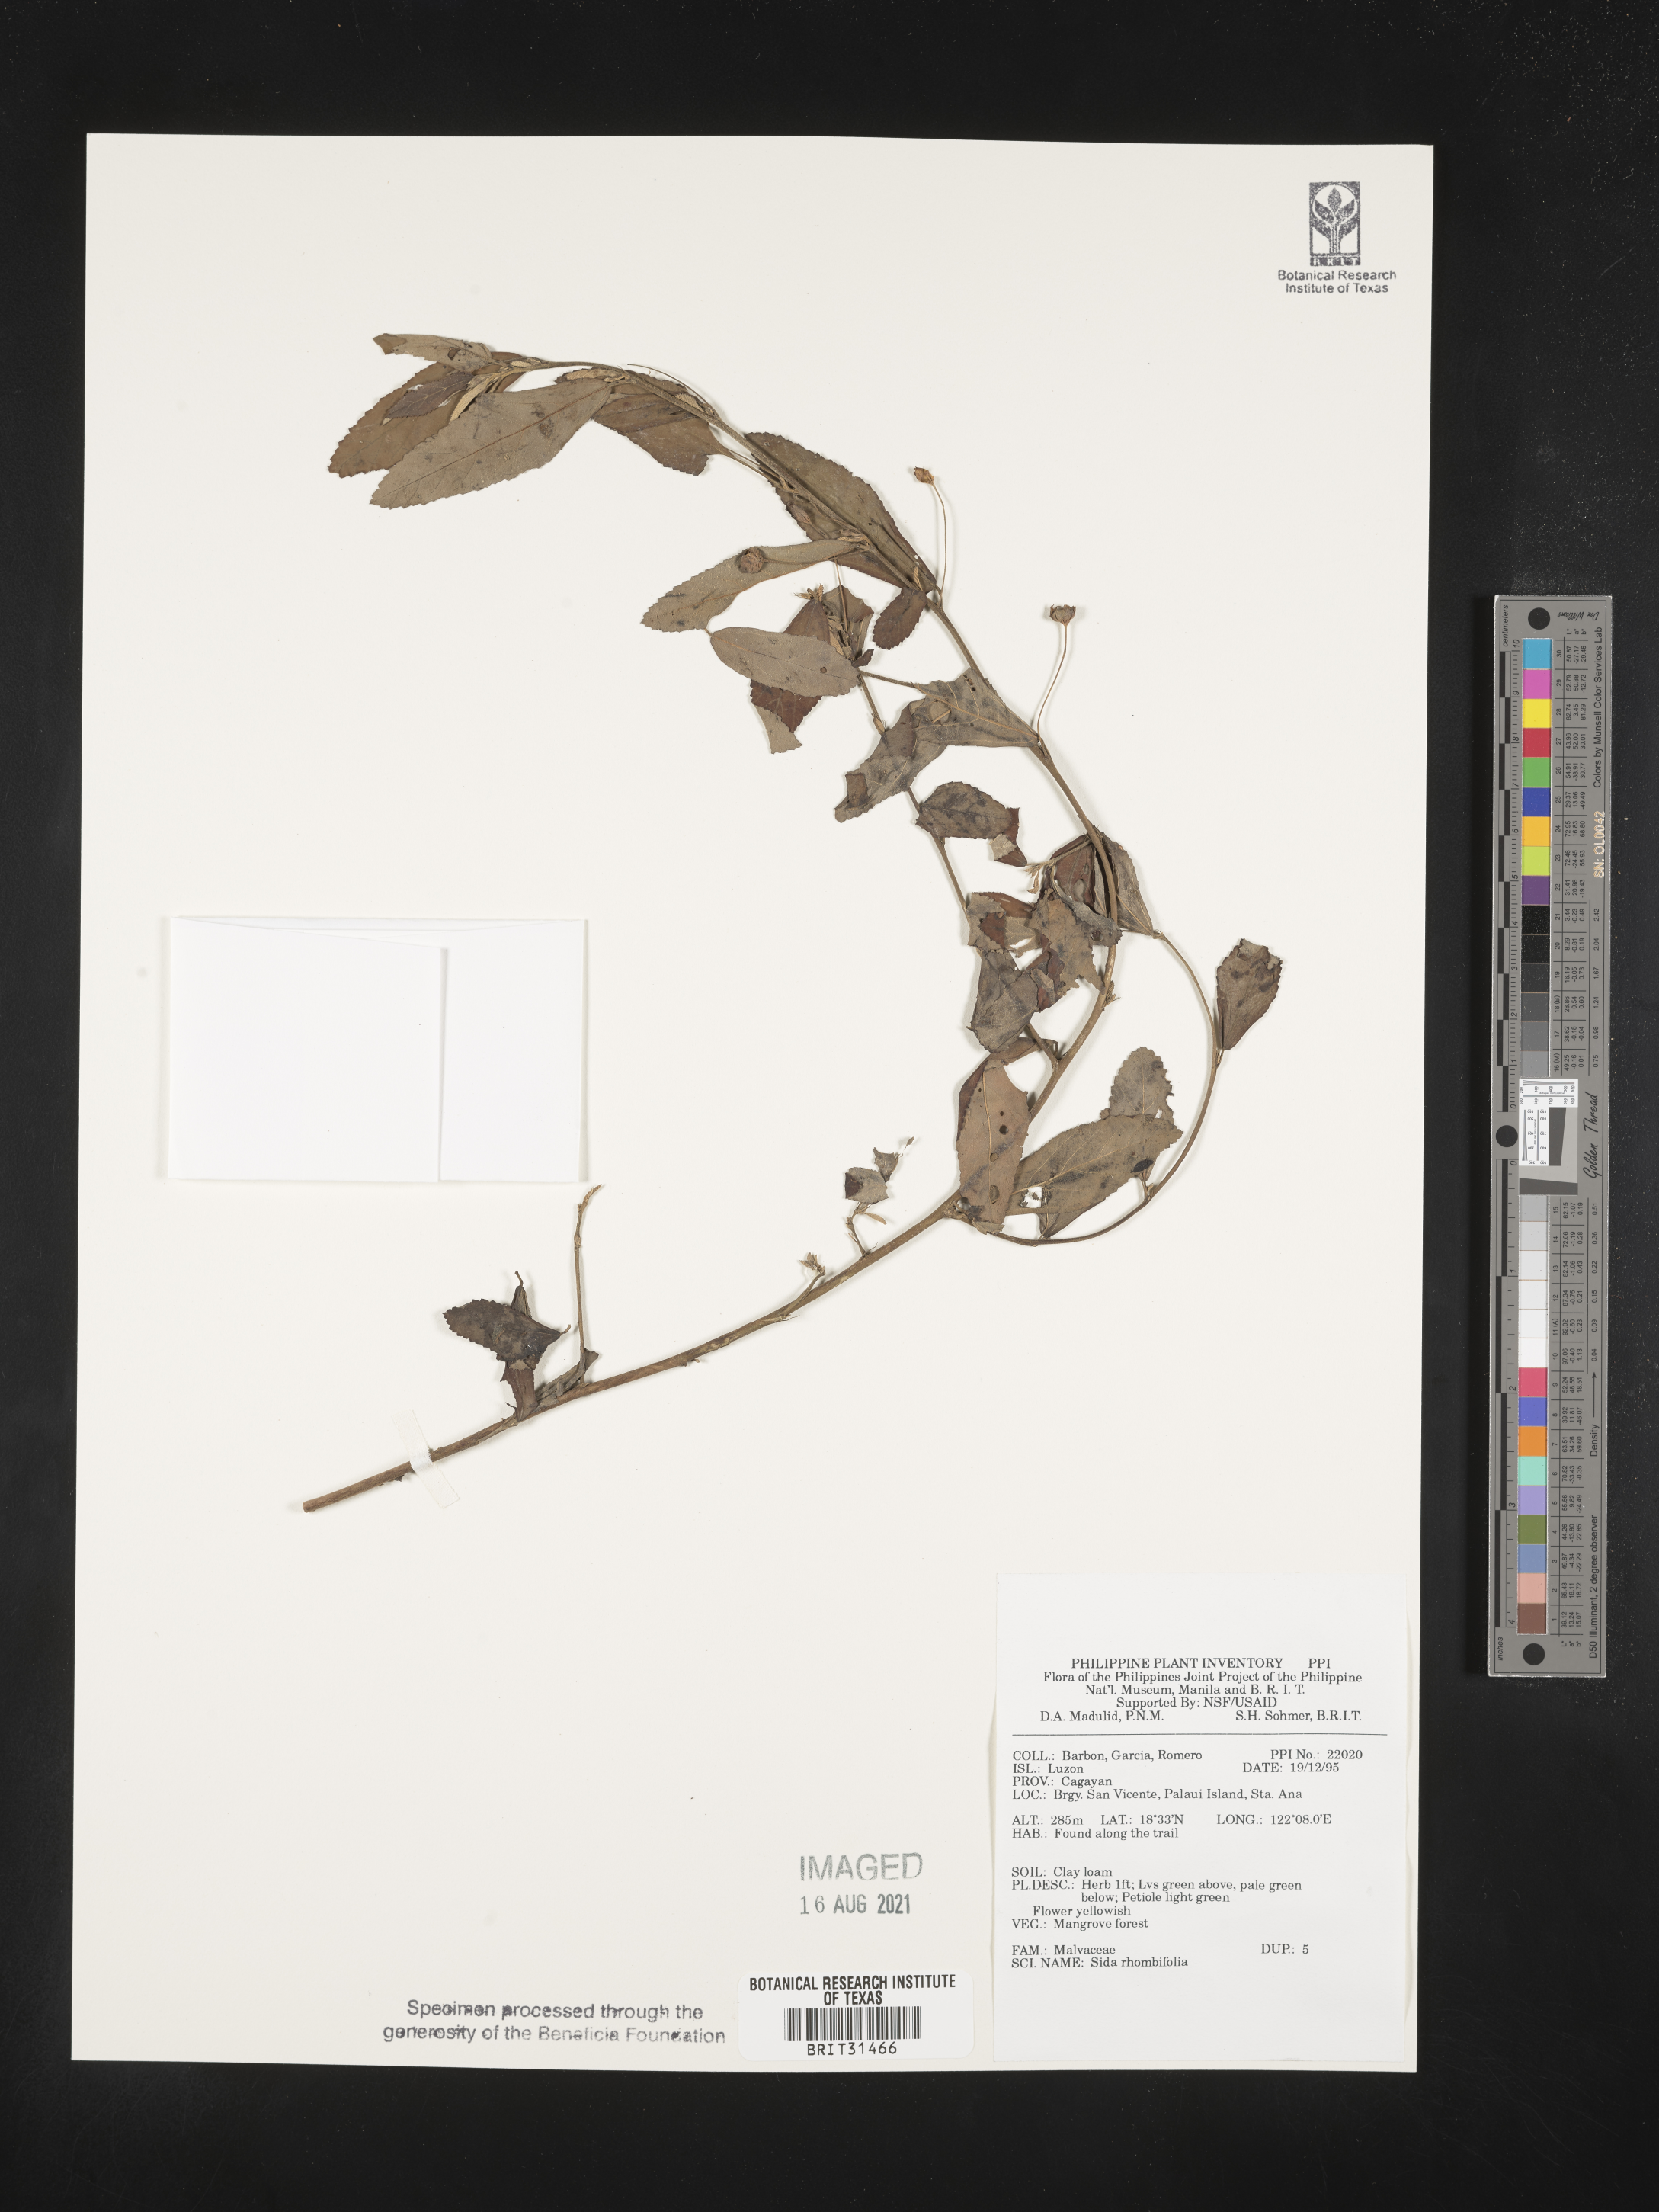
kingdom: Plantae
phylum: Tracheophyta
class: Magnoliopsida
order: Malvales
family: Malvaceae
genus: Sida
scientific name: Sida rhombifolia
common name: Queensland-hemp
